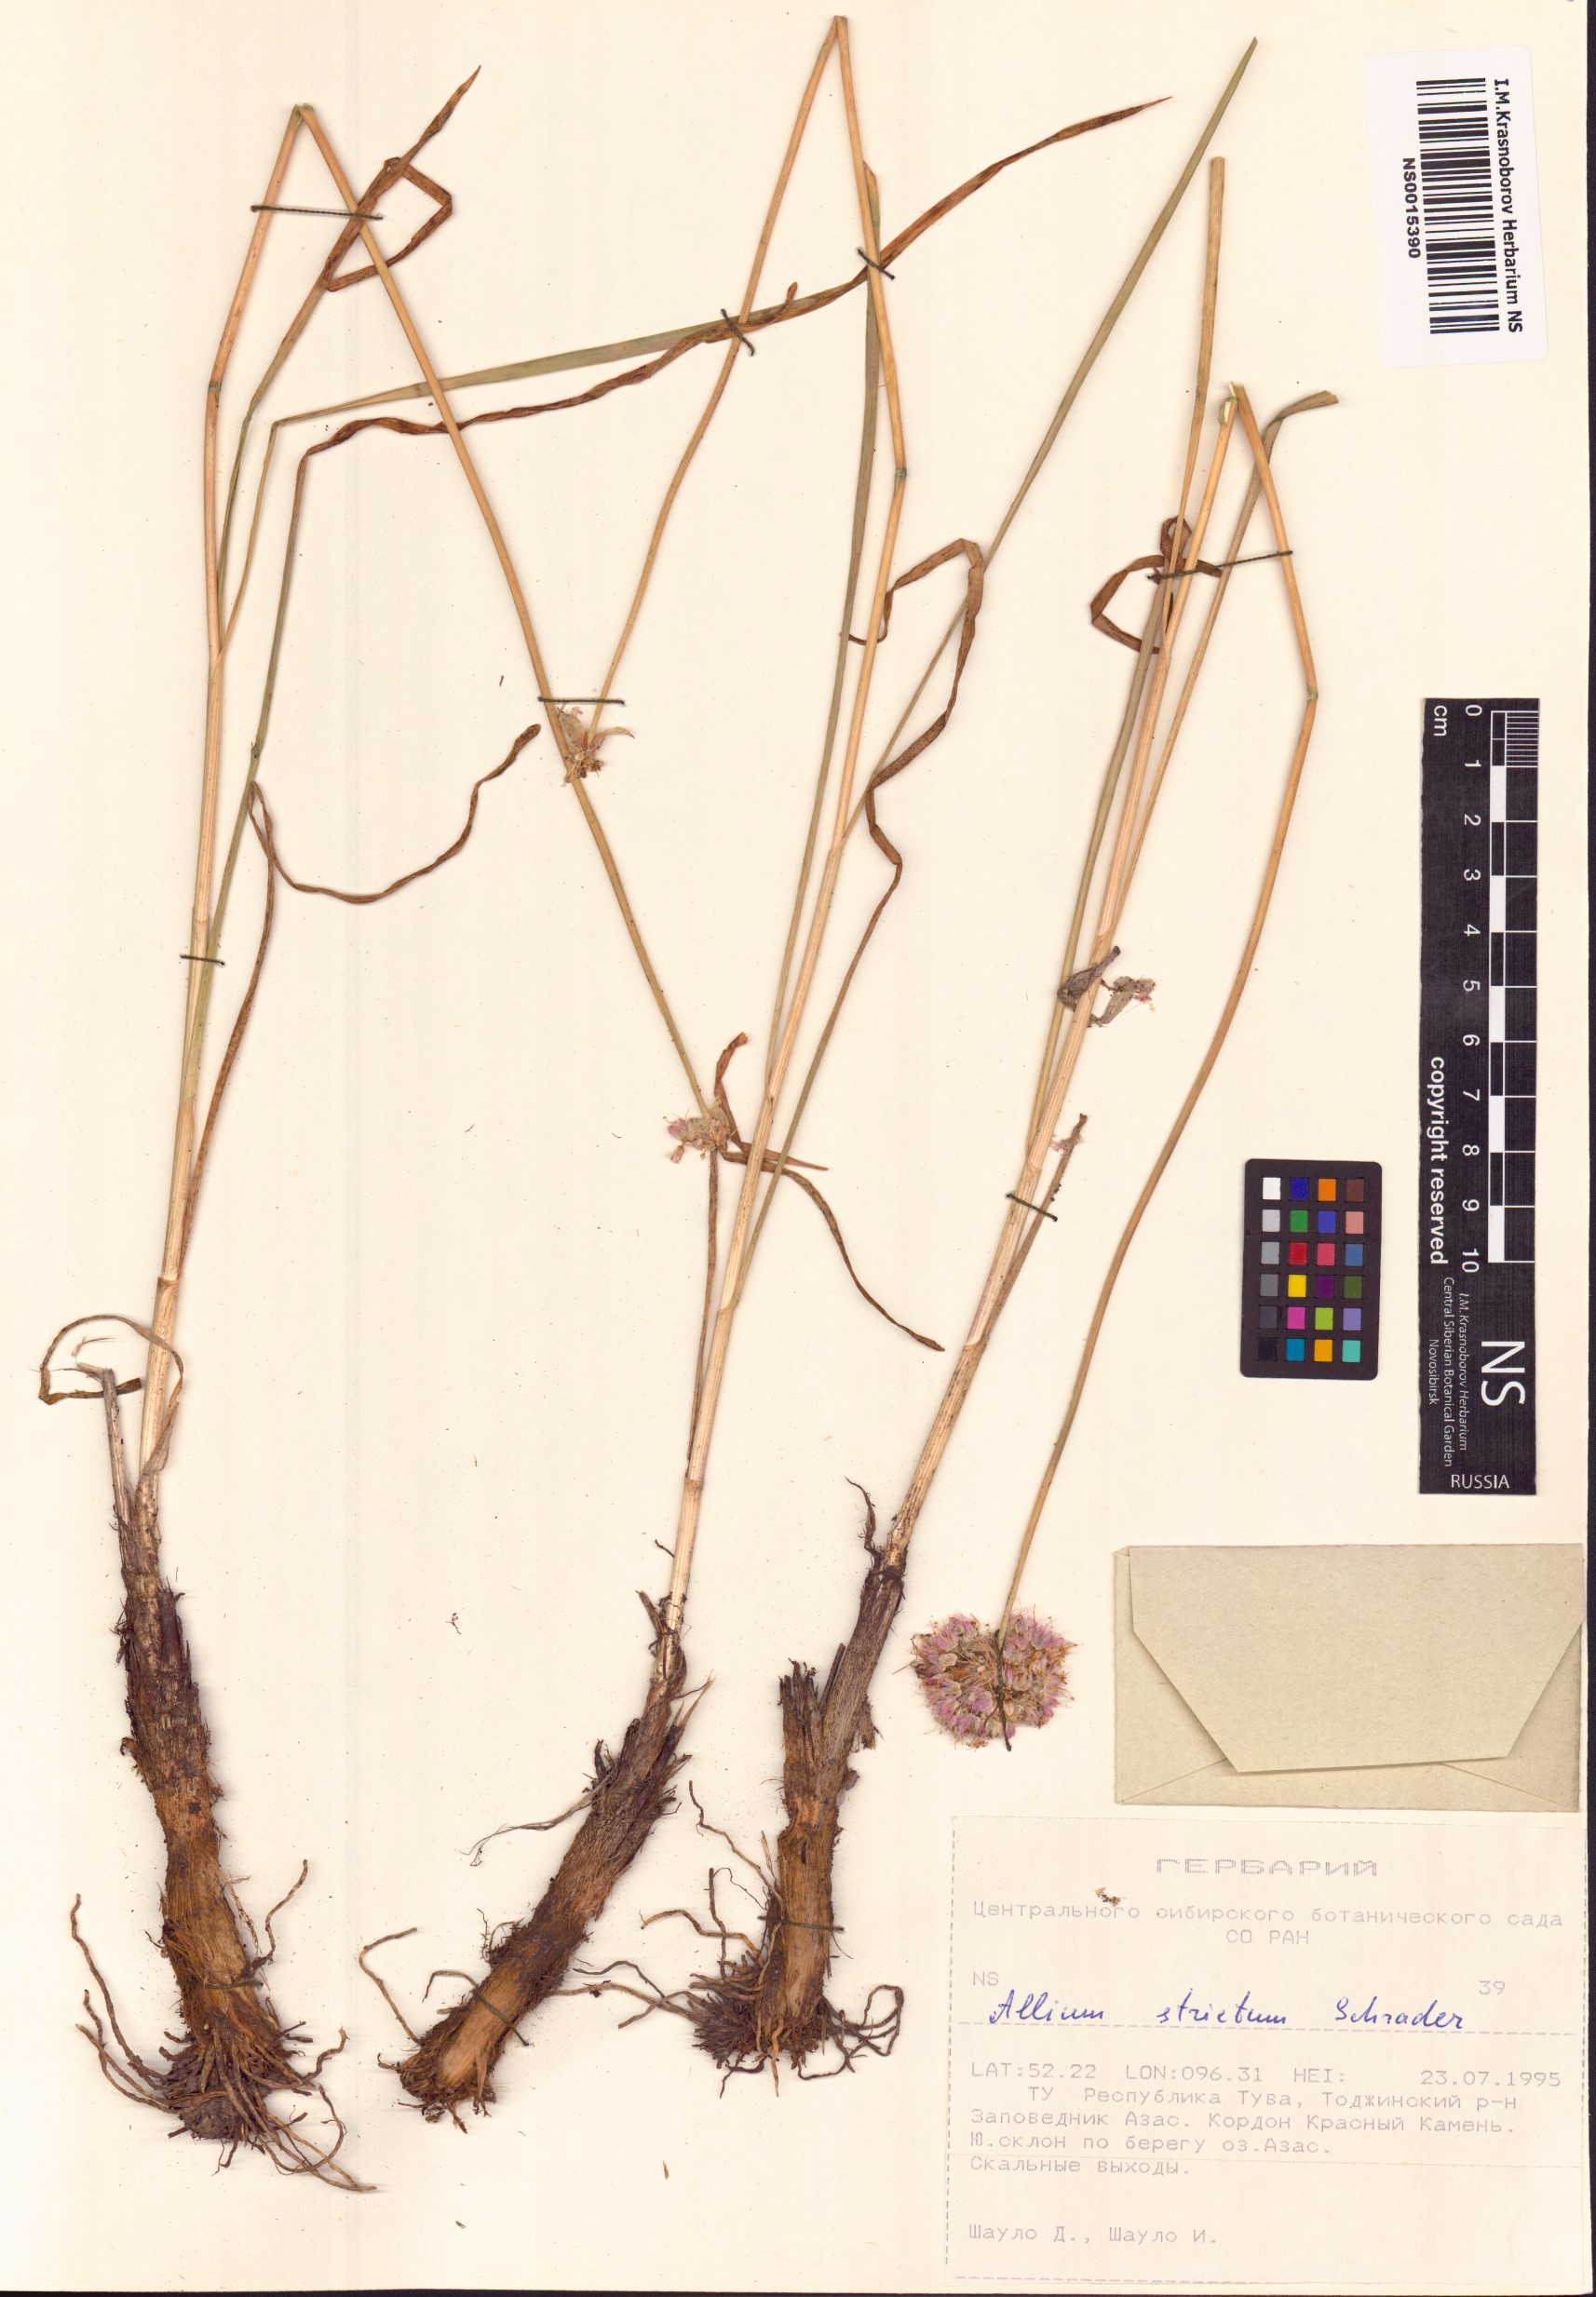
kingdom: Plantae
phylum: Tracheophyta
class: Liliopsida
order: Asparagales
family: Amaryllidaceae
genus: Allium
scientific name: Allium strictum
